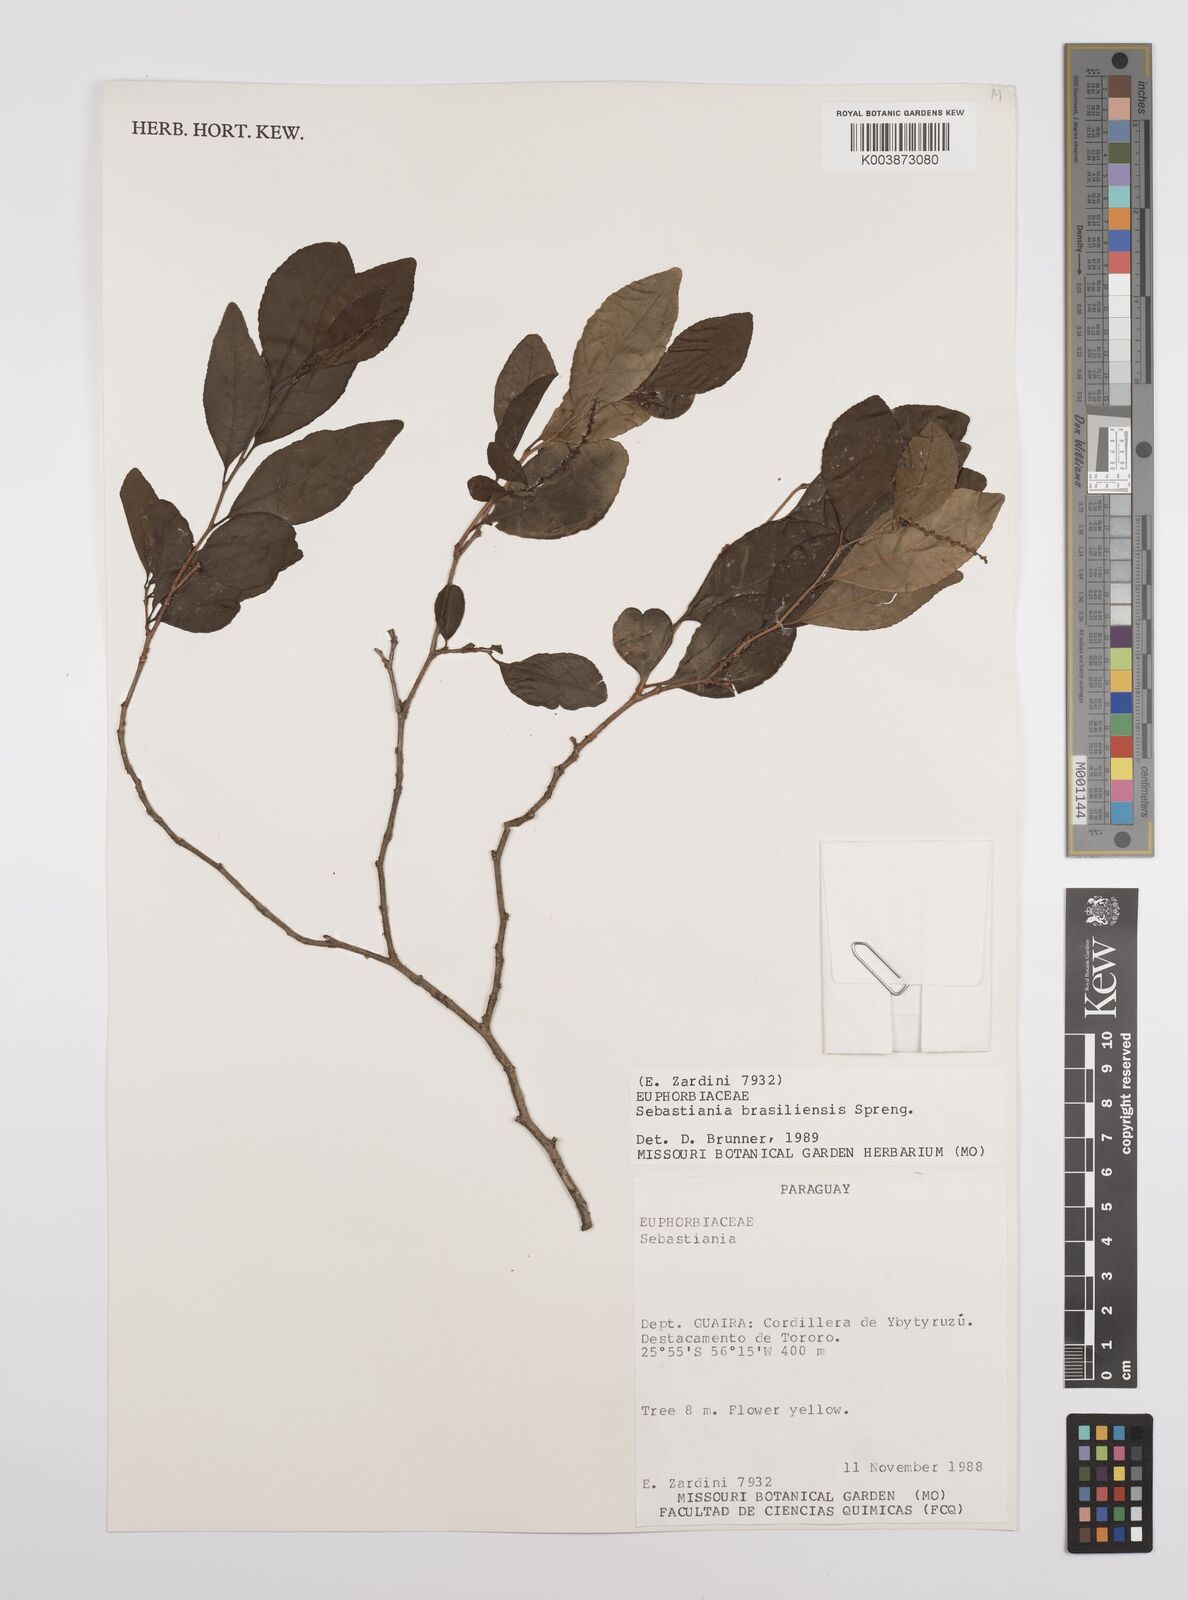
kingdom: Plantae
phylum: Tracheophyta
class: Magnoliopsida
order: Malpighiales
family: Euphorbiaceae
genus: Sebastiania
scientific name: Sebastiania brasiliensis
